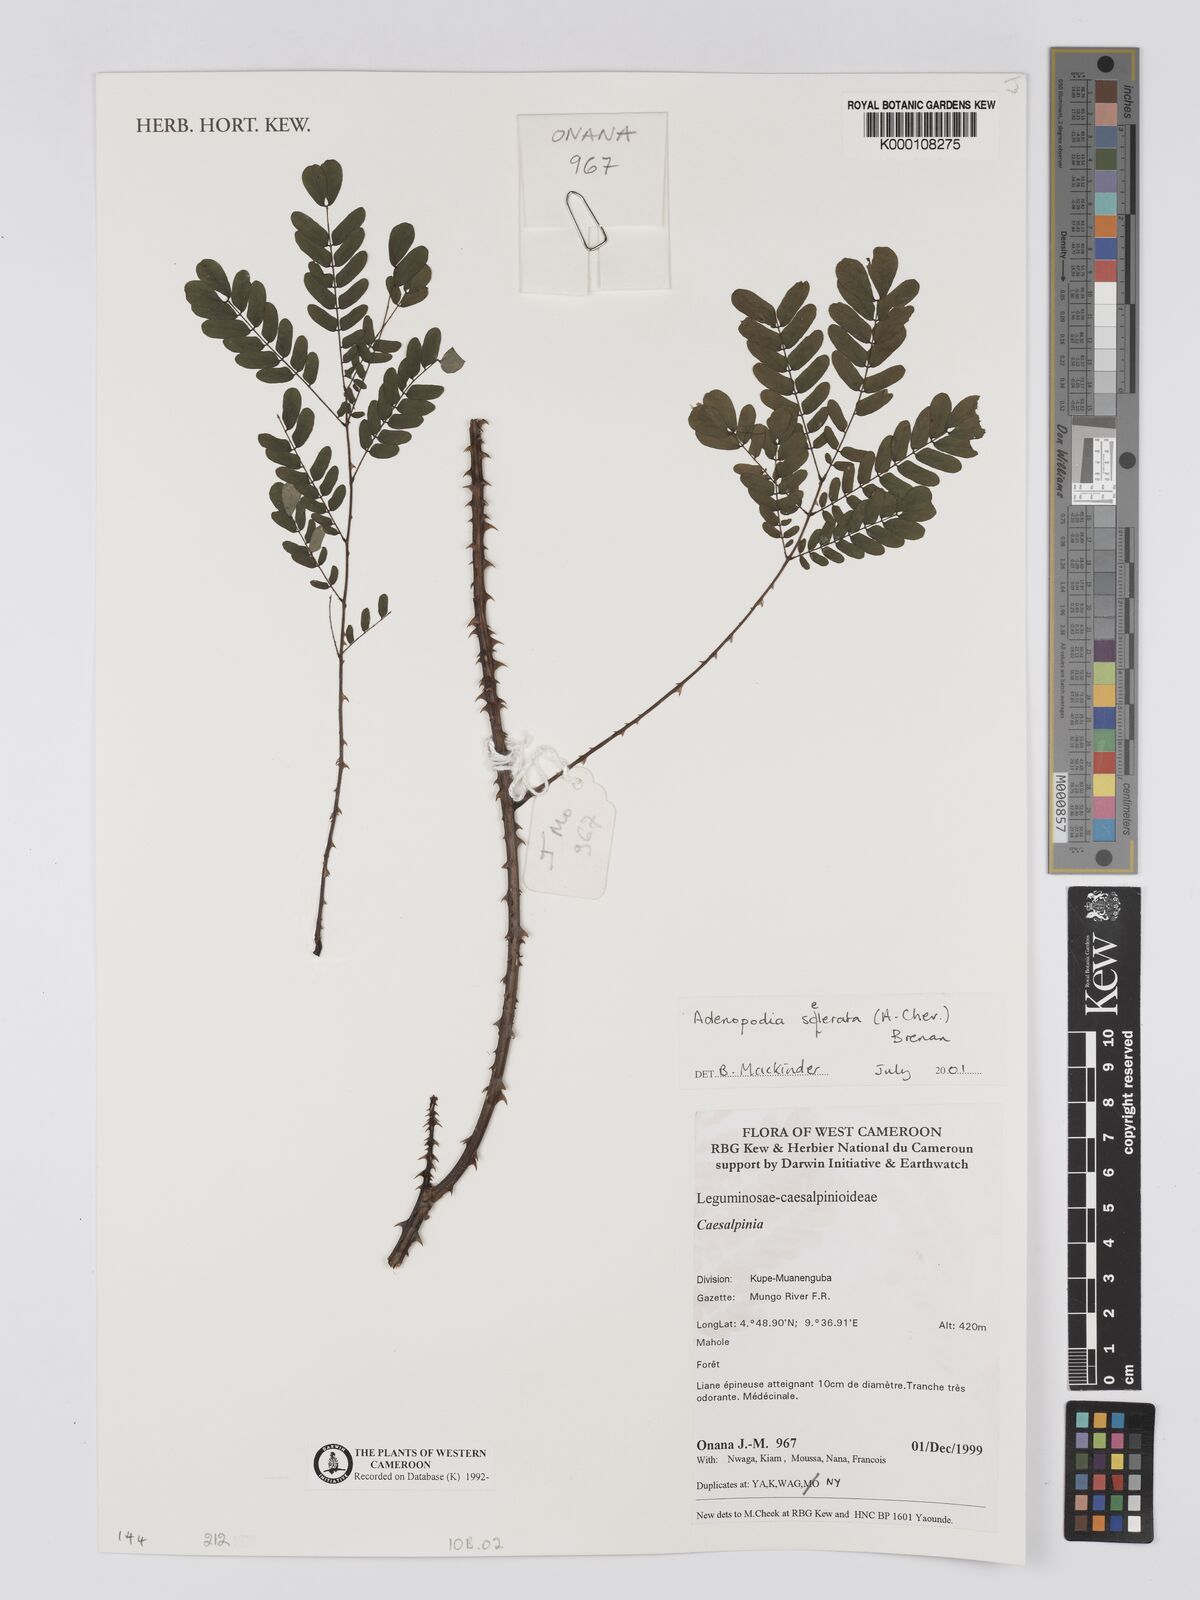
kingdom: Plantae
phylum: Tracheophyta
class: Magnoliopsida
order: Fabales
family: Fabaceae
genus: Adenopodia
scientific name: Adenopodia scelerata
